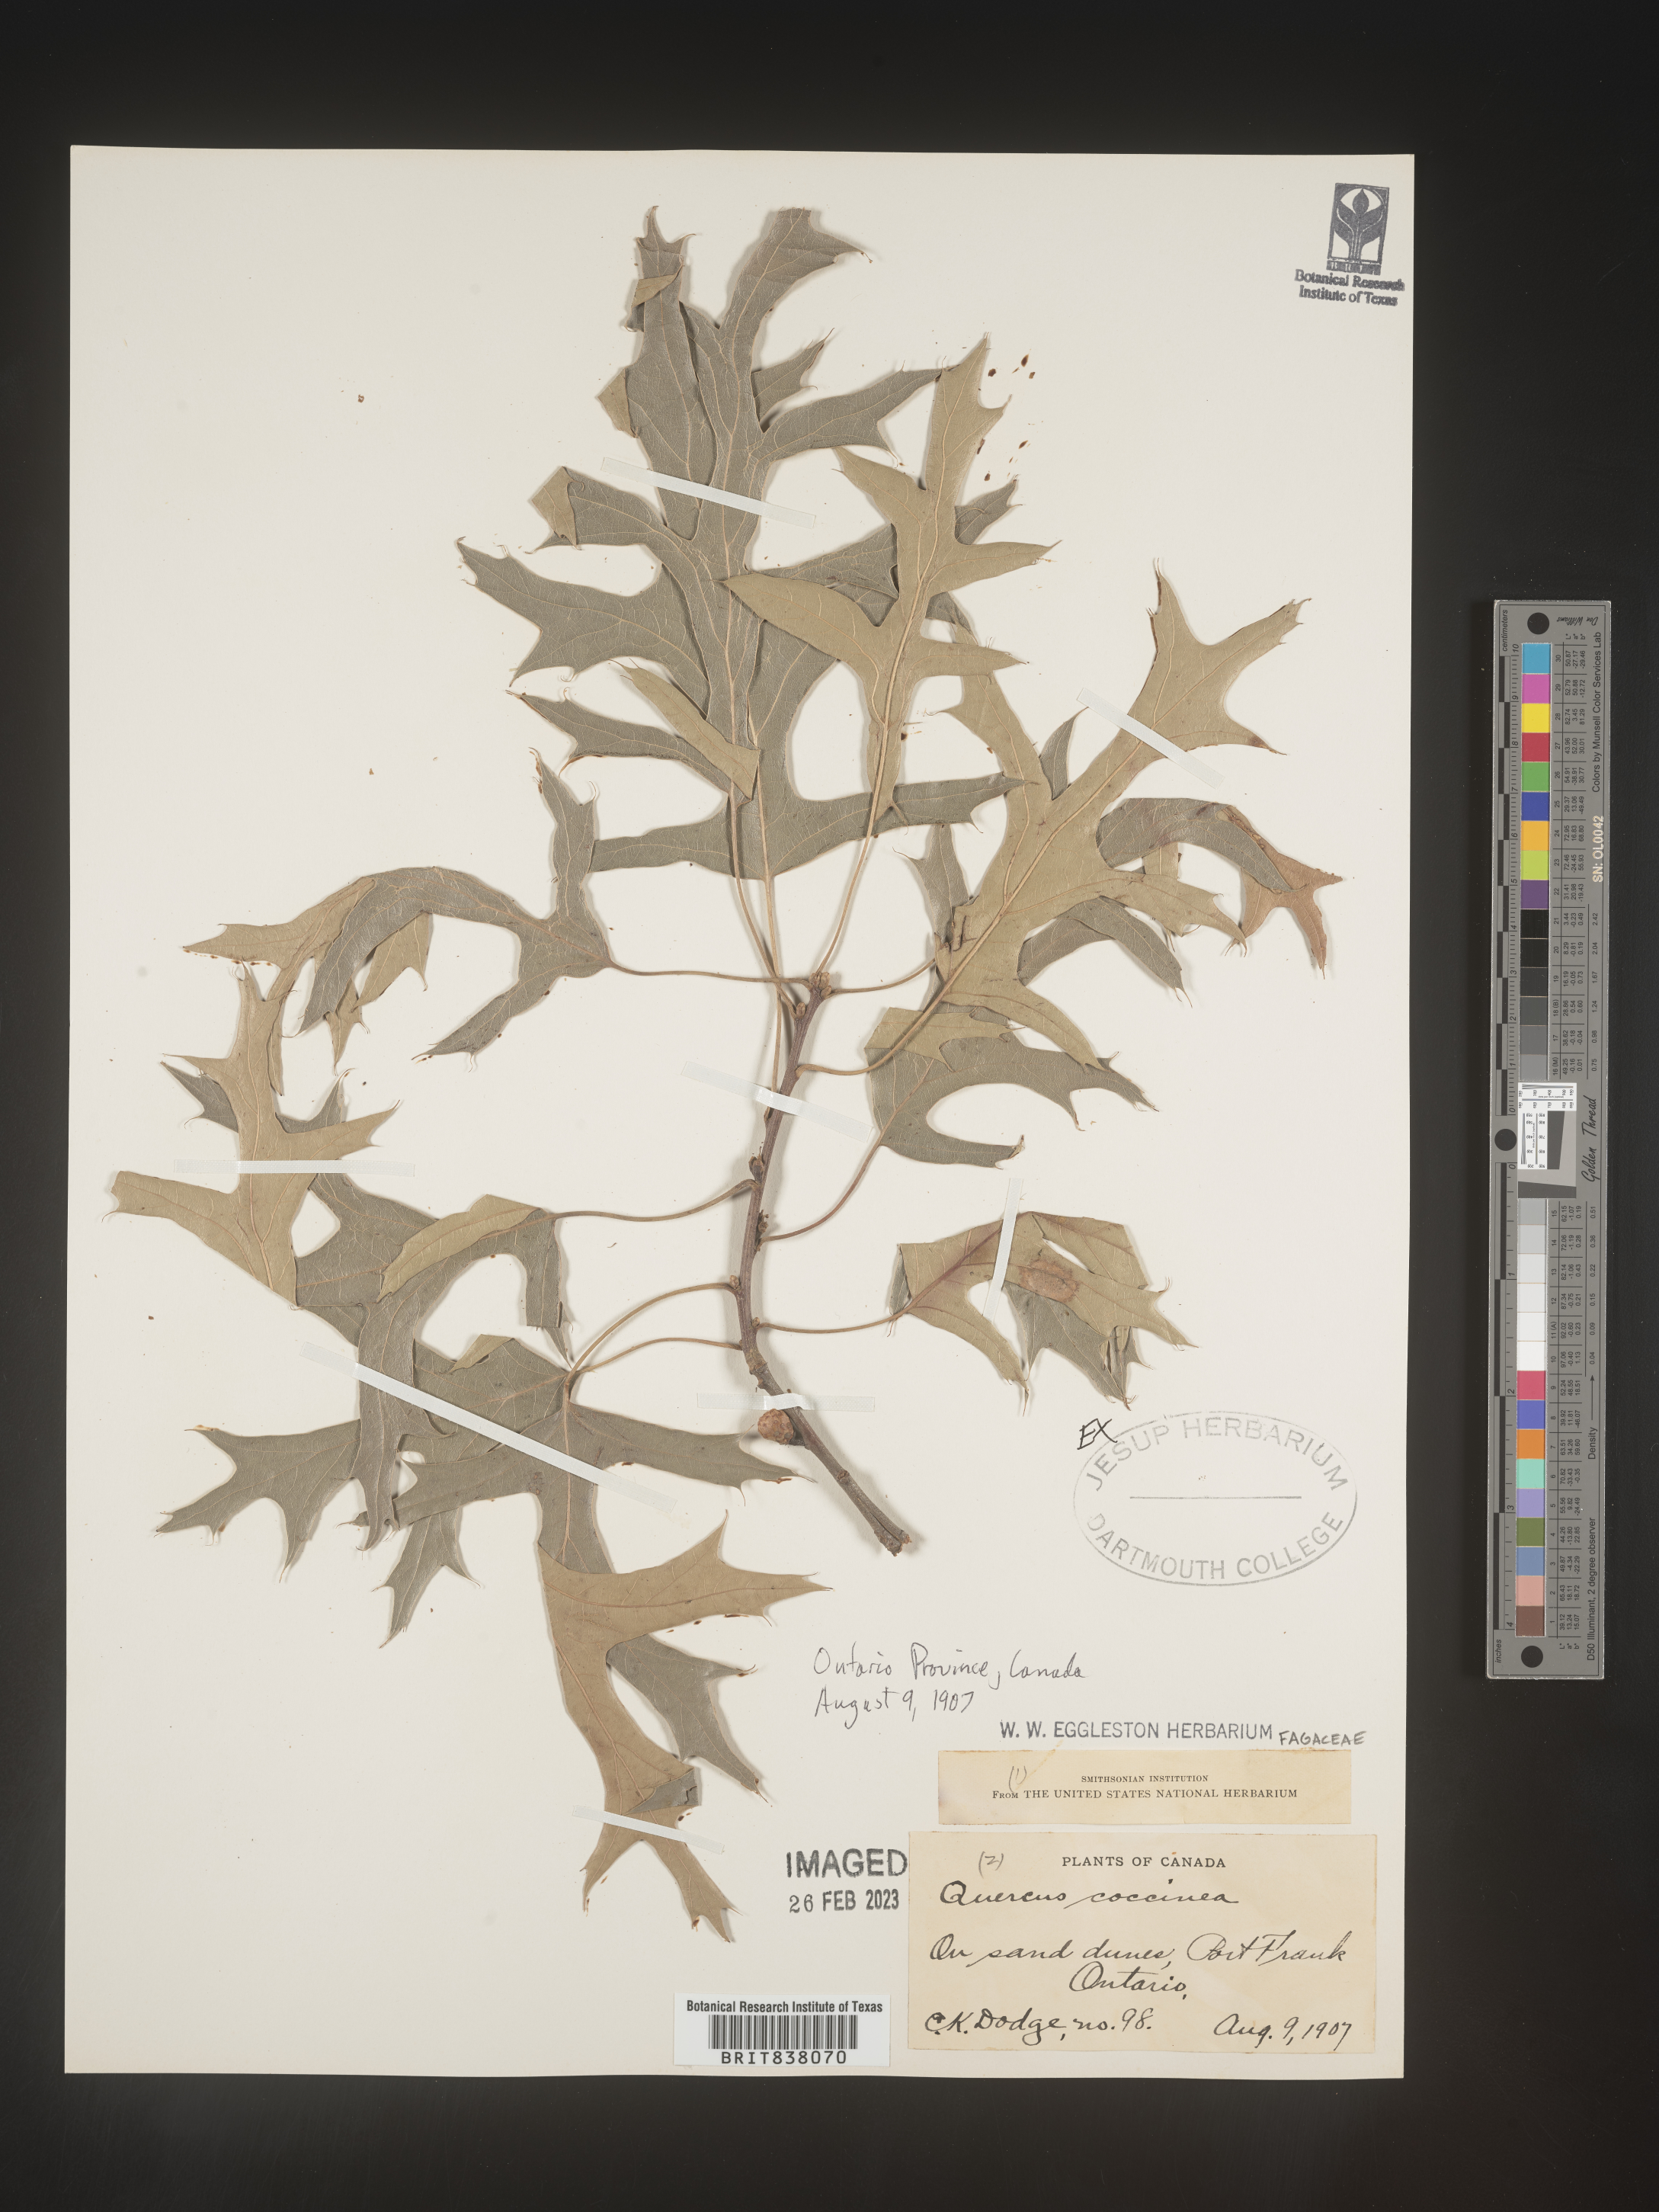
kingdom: Plantae
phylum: Tracheophyta
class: Magnoliopsida
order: Fagales
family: Fagaceae
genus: Quercus
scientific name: Quercus coccinea
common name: Scarlet oak
